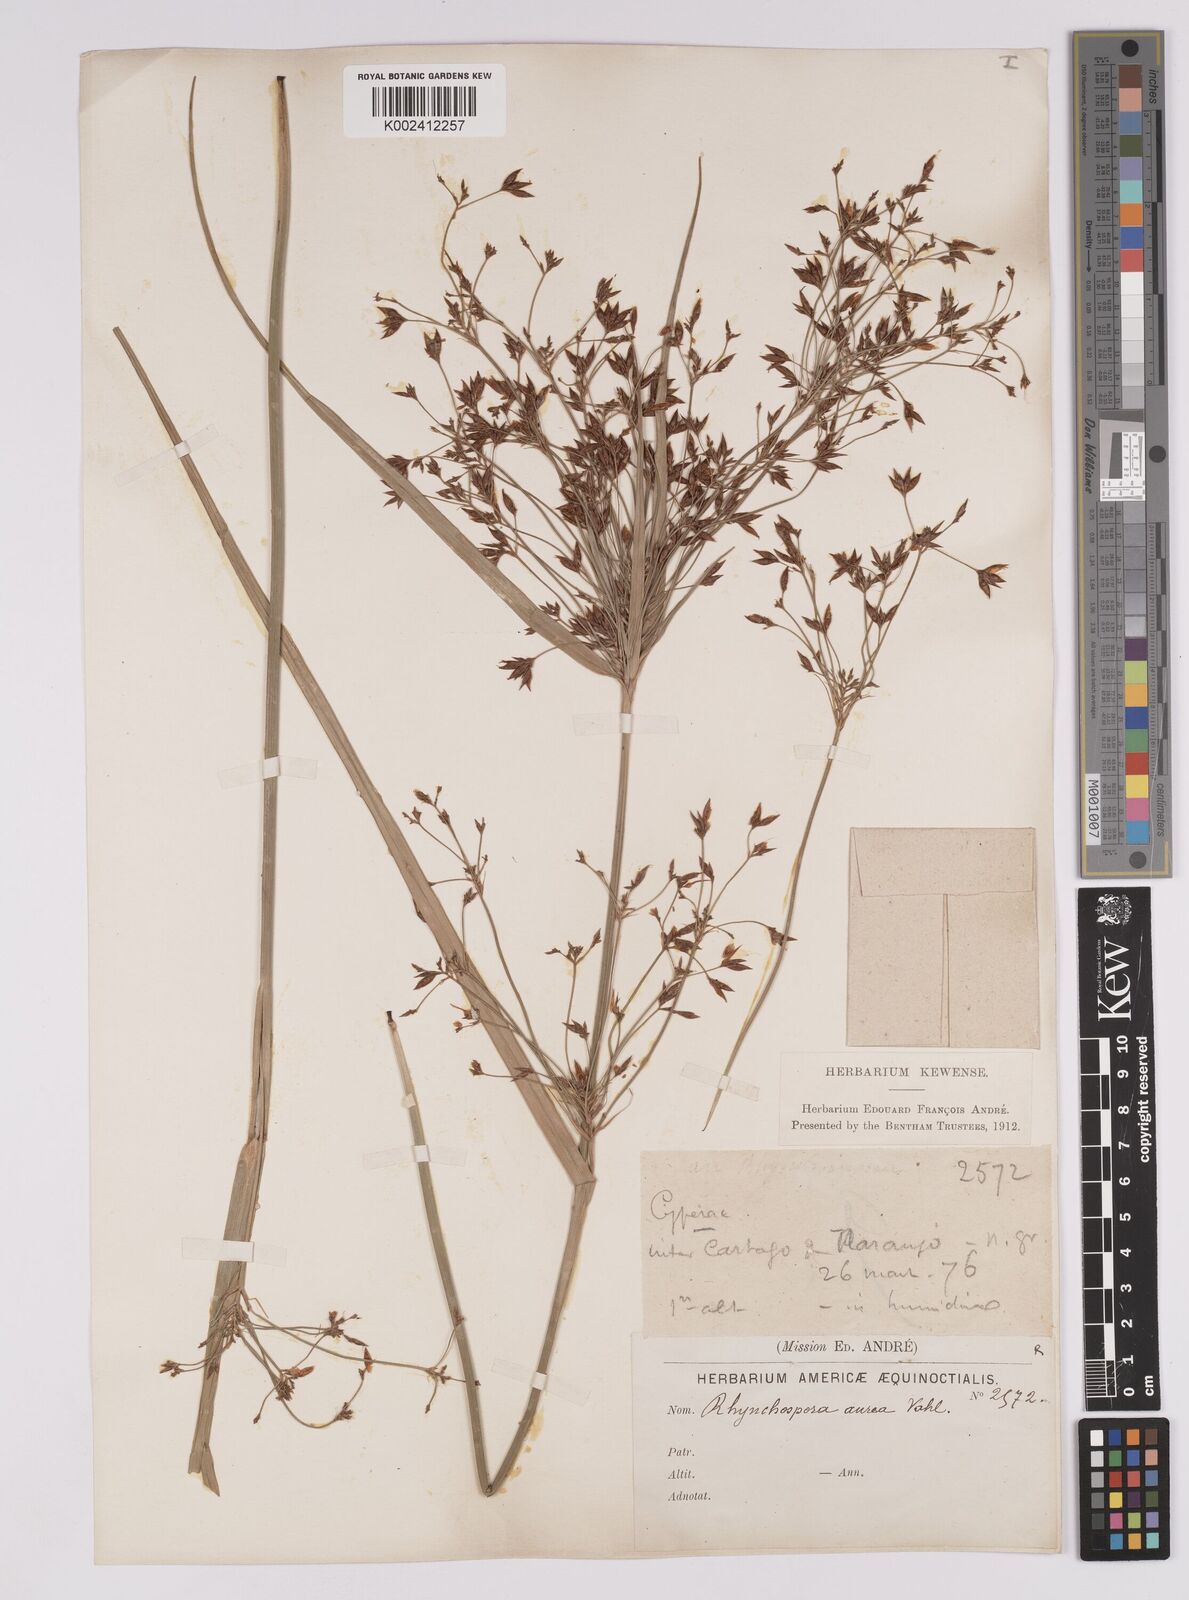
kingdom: Plantae
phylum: Tracheophyta
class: Liliopsida
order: Poales
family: Cyperaceae
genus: Rhynchospora
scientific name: Rhynchospora corymbosa
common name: Golden beak sedge
